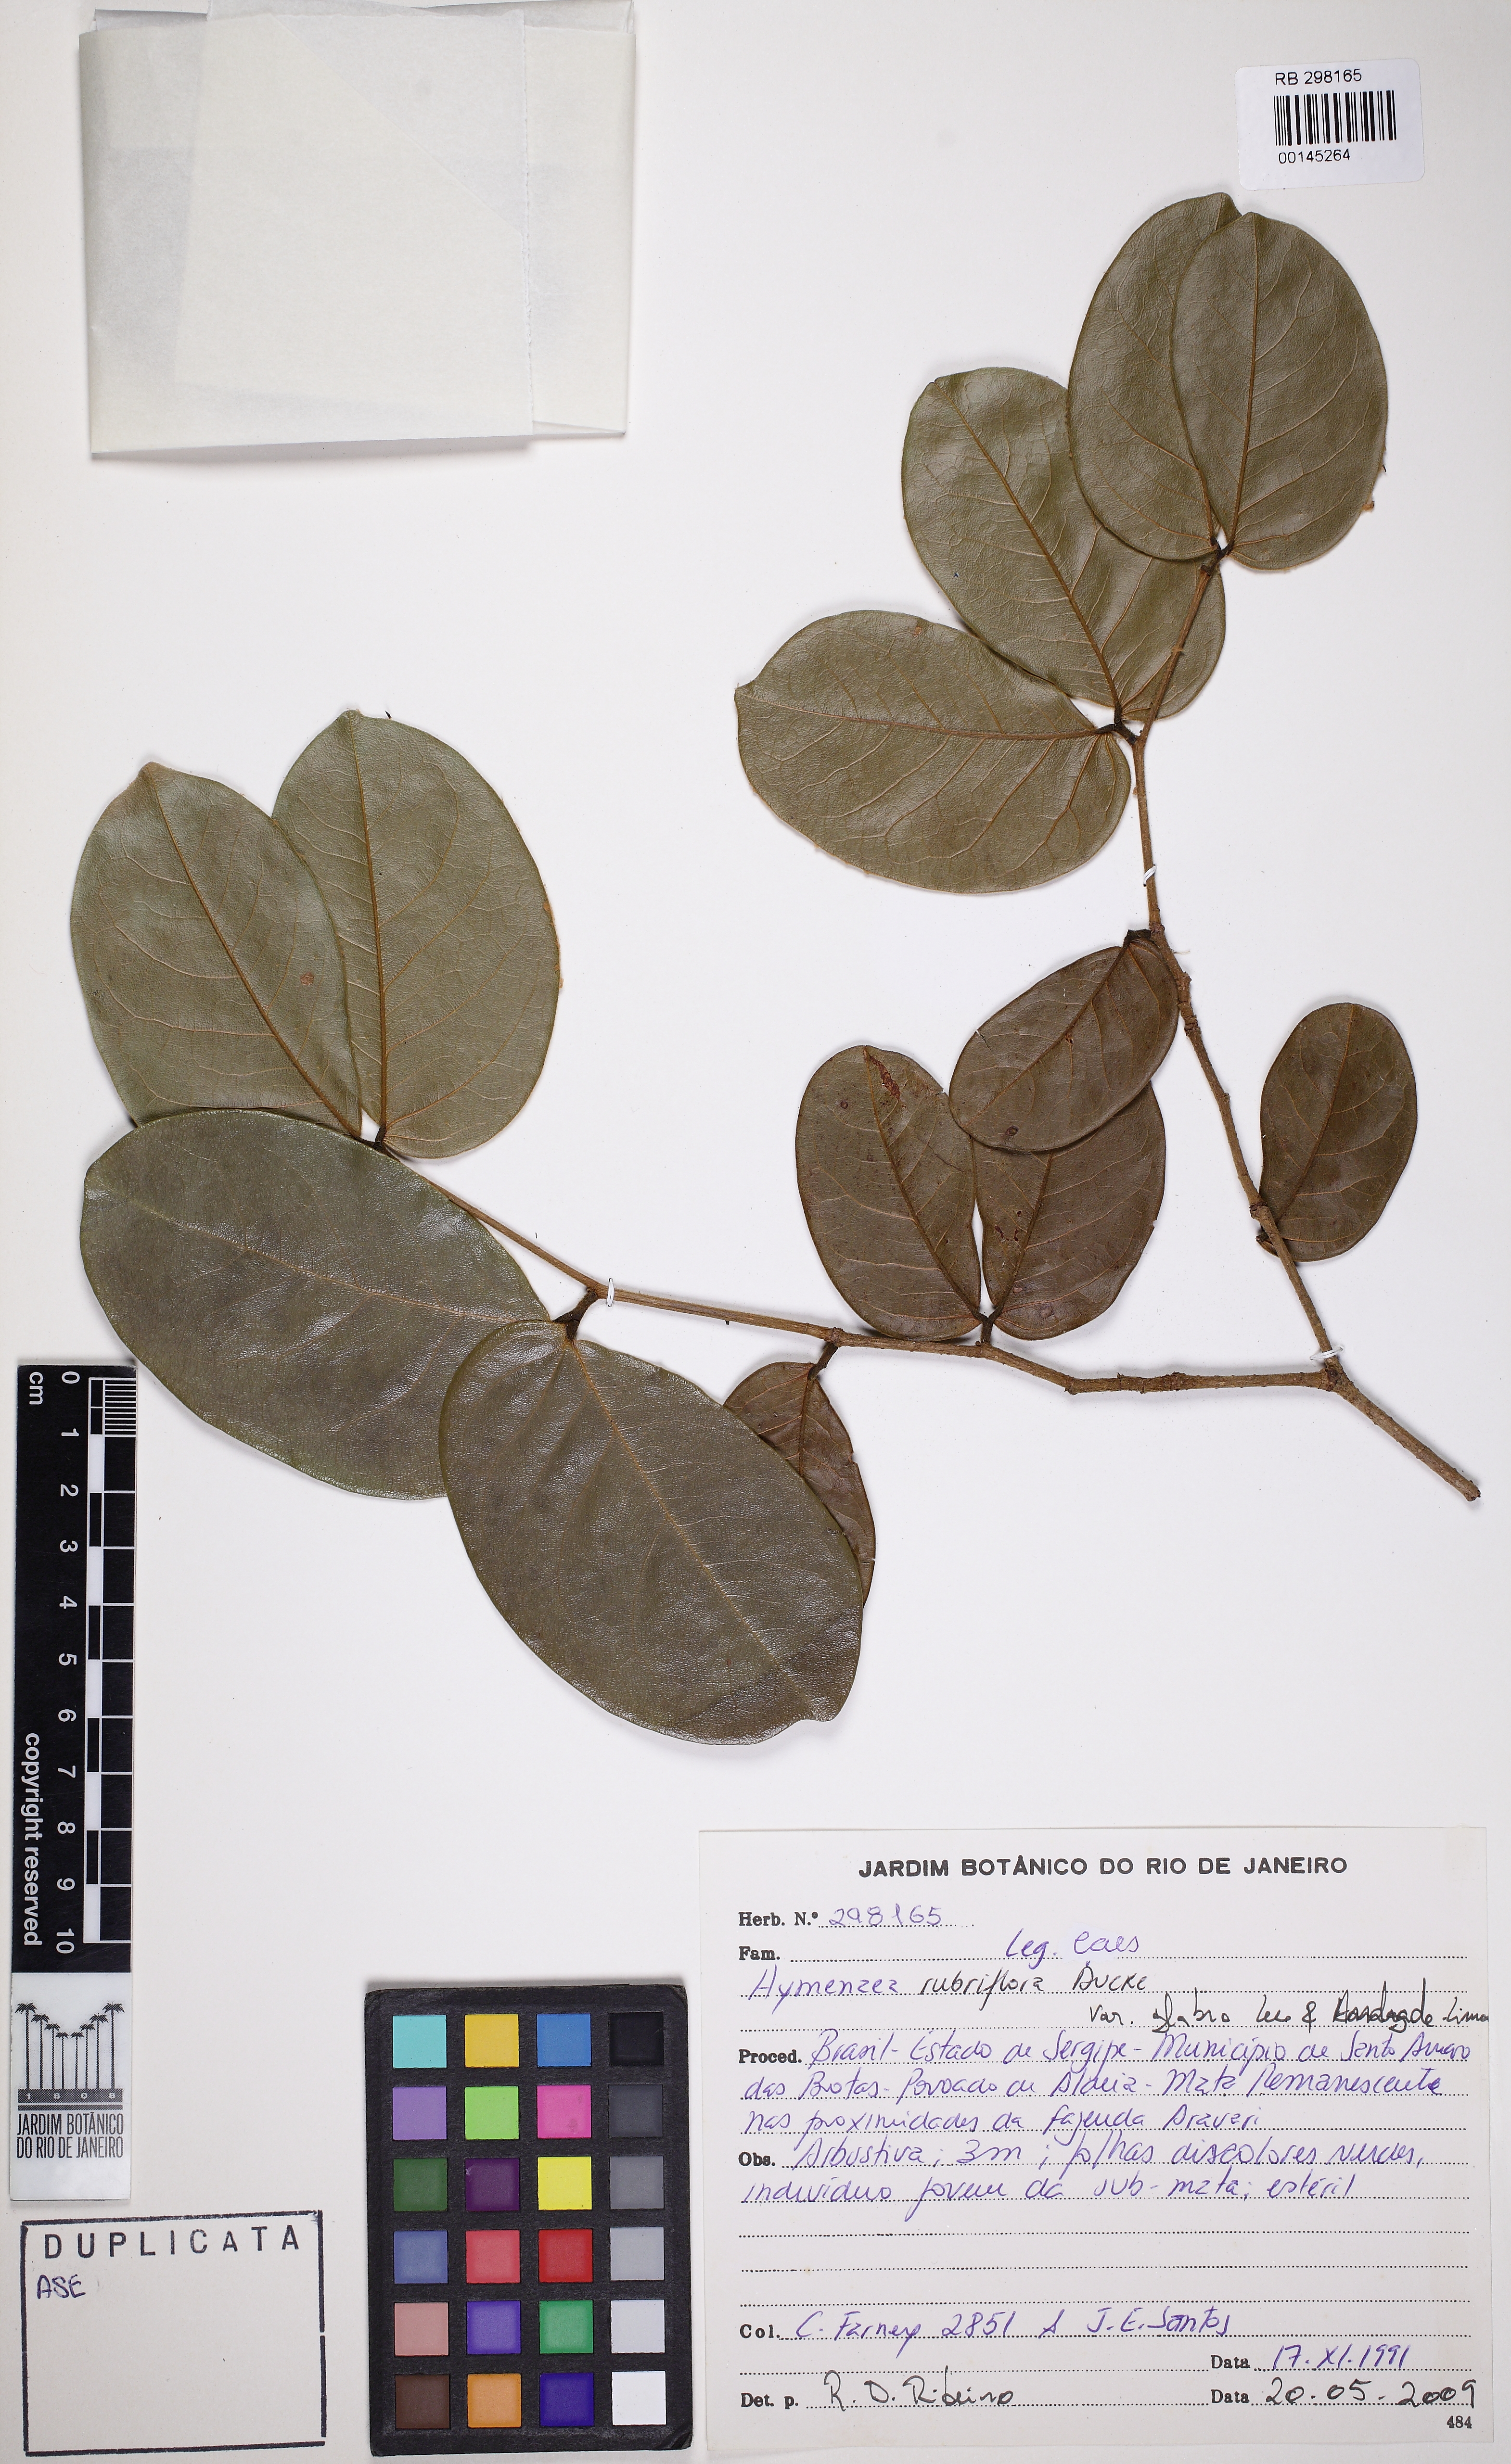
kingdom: Plantae
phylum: Tracheophyta
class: Magnoliopsida
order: Fabales
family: Fabaceae
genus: Hymenaea
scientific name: Hymenaea rubriflora
